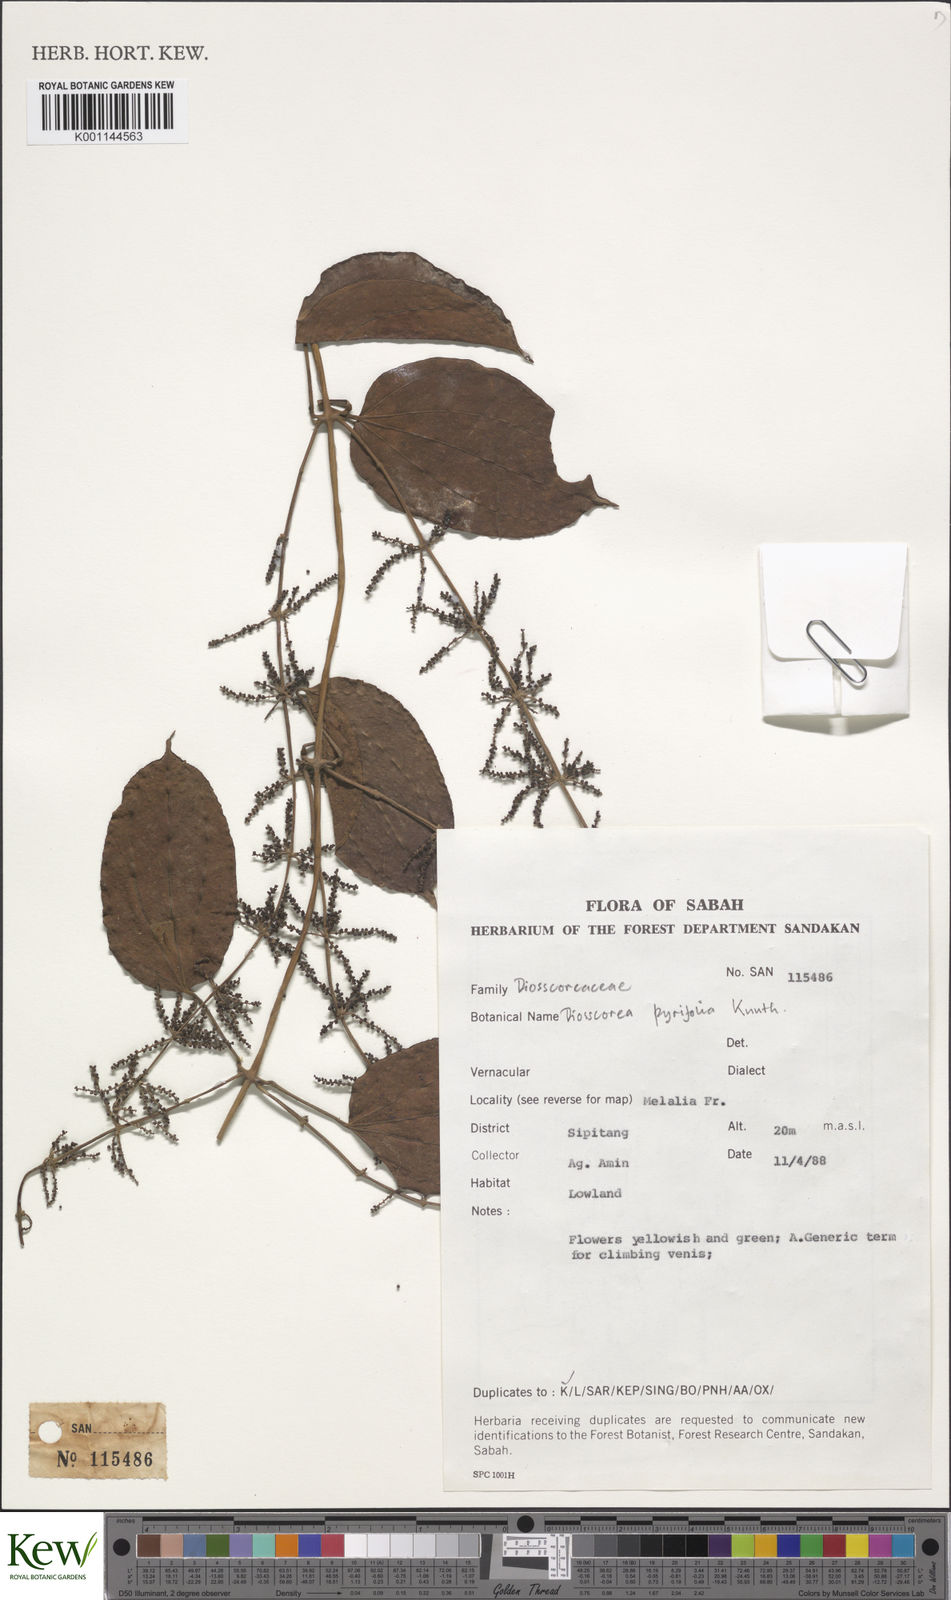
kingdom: Plantae
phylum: Tracheophyta
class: Liliopsida
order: Dioscoreales
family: Dioscoreaceae
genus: Dioscorea
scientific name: Dioscorea pyrifolia
